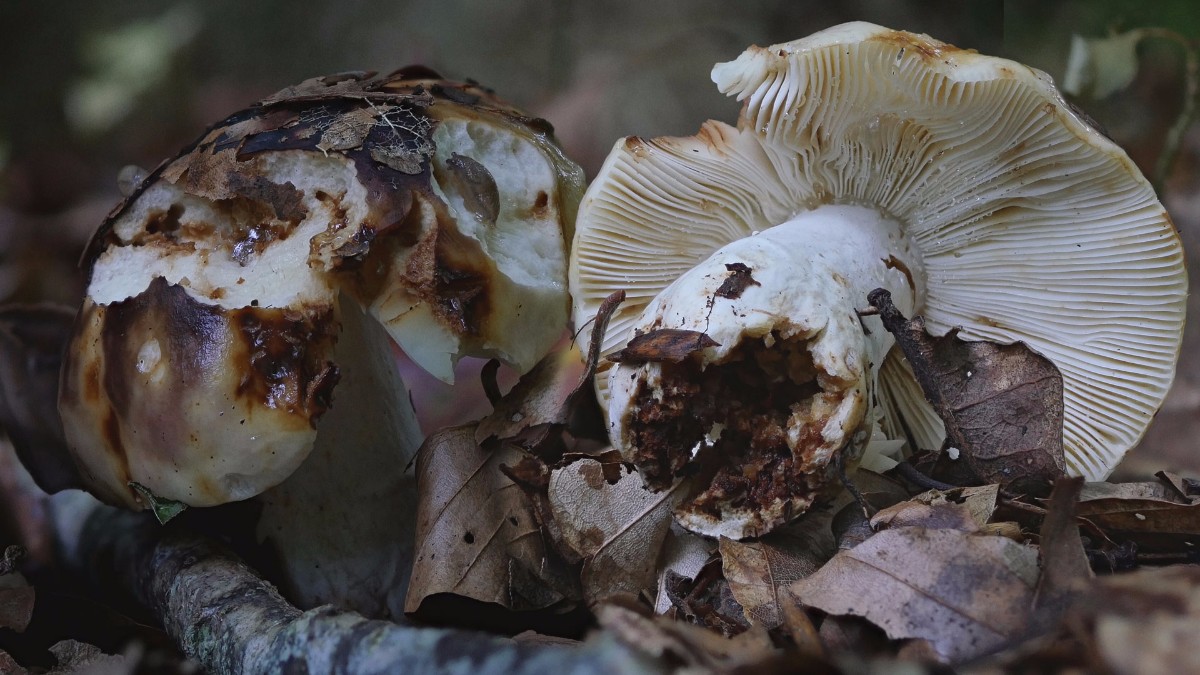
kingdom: Fungi
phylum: Basidiomycota
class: Agaricomycetes
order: Russulales
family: Russulaceae
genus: Russula
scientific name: Russula viscida
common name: knippe-skørhat
